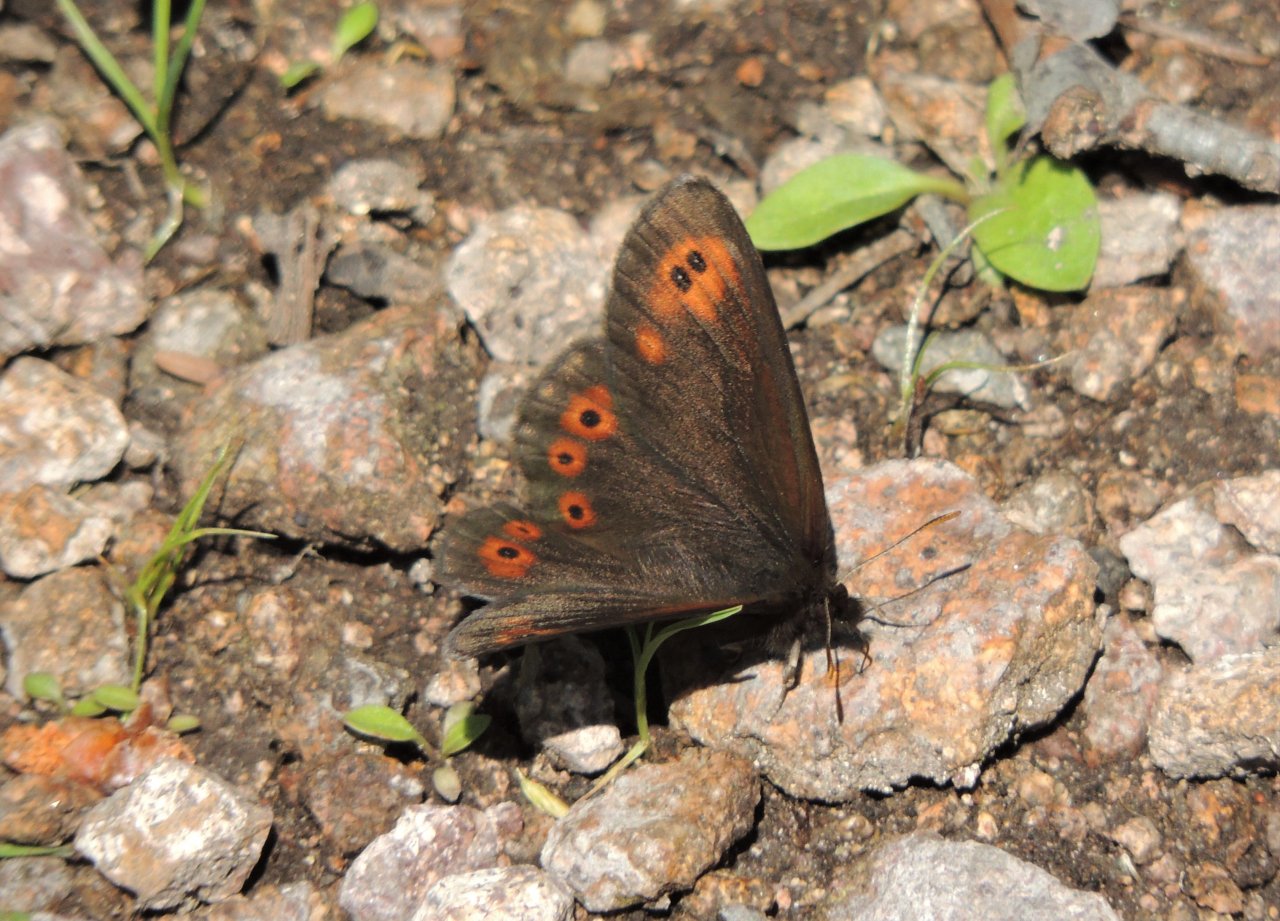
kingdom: Animalia
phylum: Arthropoda
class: Insecta
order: Lepidoptera
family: Nymphalidae
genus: Erebia
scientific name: Erebia epipsodea
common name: Common Alpine
